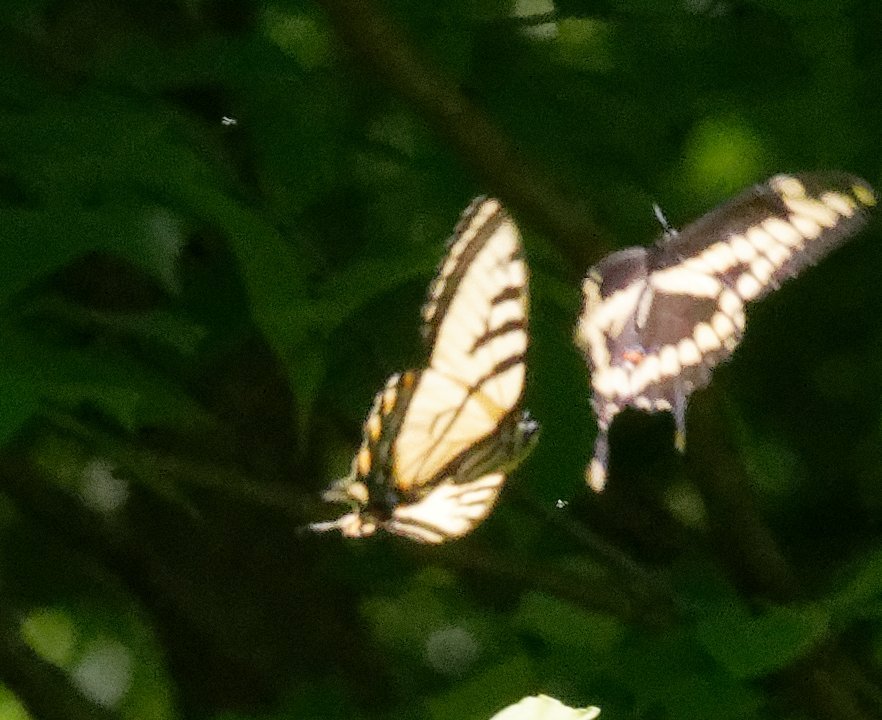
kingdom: Animalia
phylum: Arthropoda
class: Insecta
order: Lepidoptera
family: Papilionidae
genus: Pterourus
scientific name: Pterourus canadensis
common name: Canadian Tiger Swallowtail
